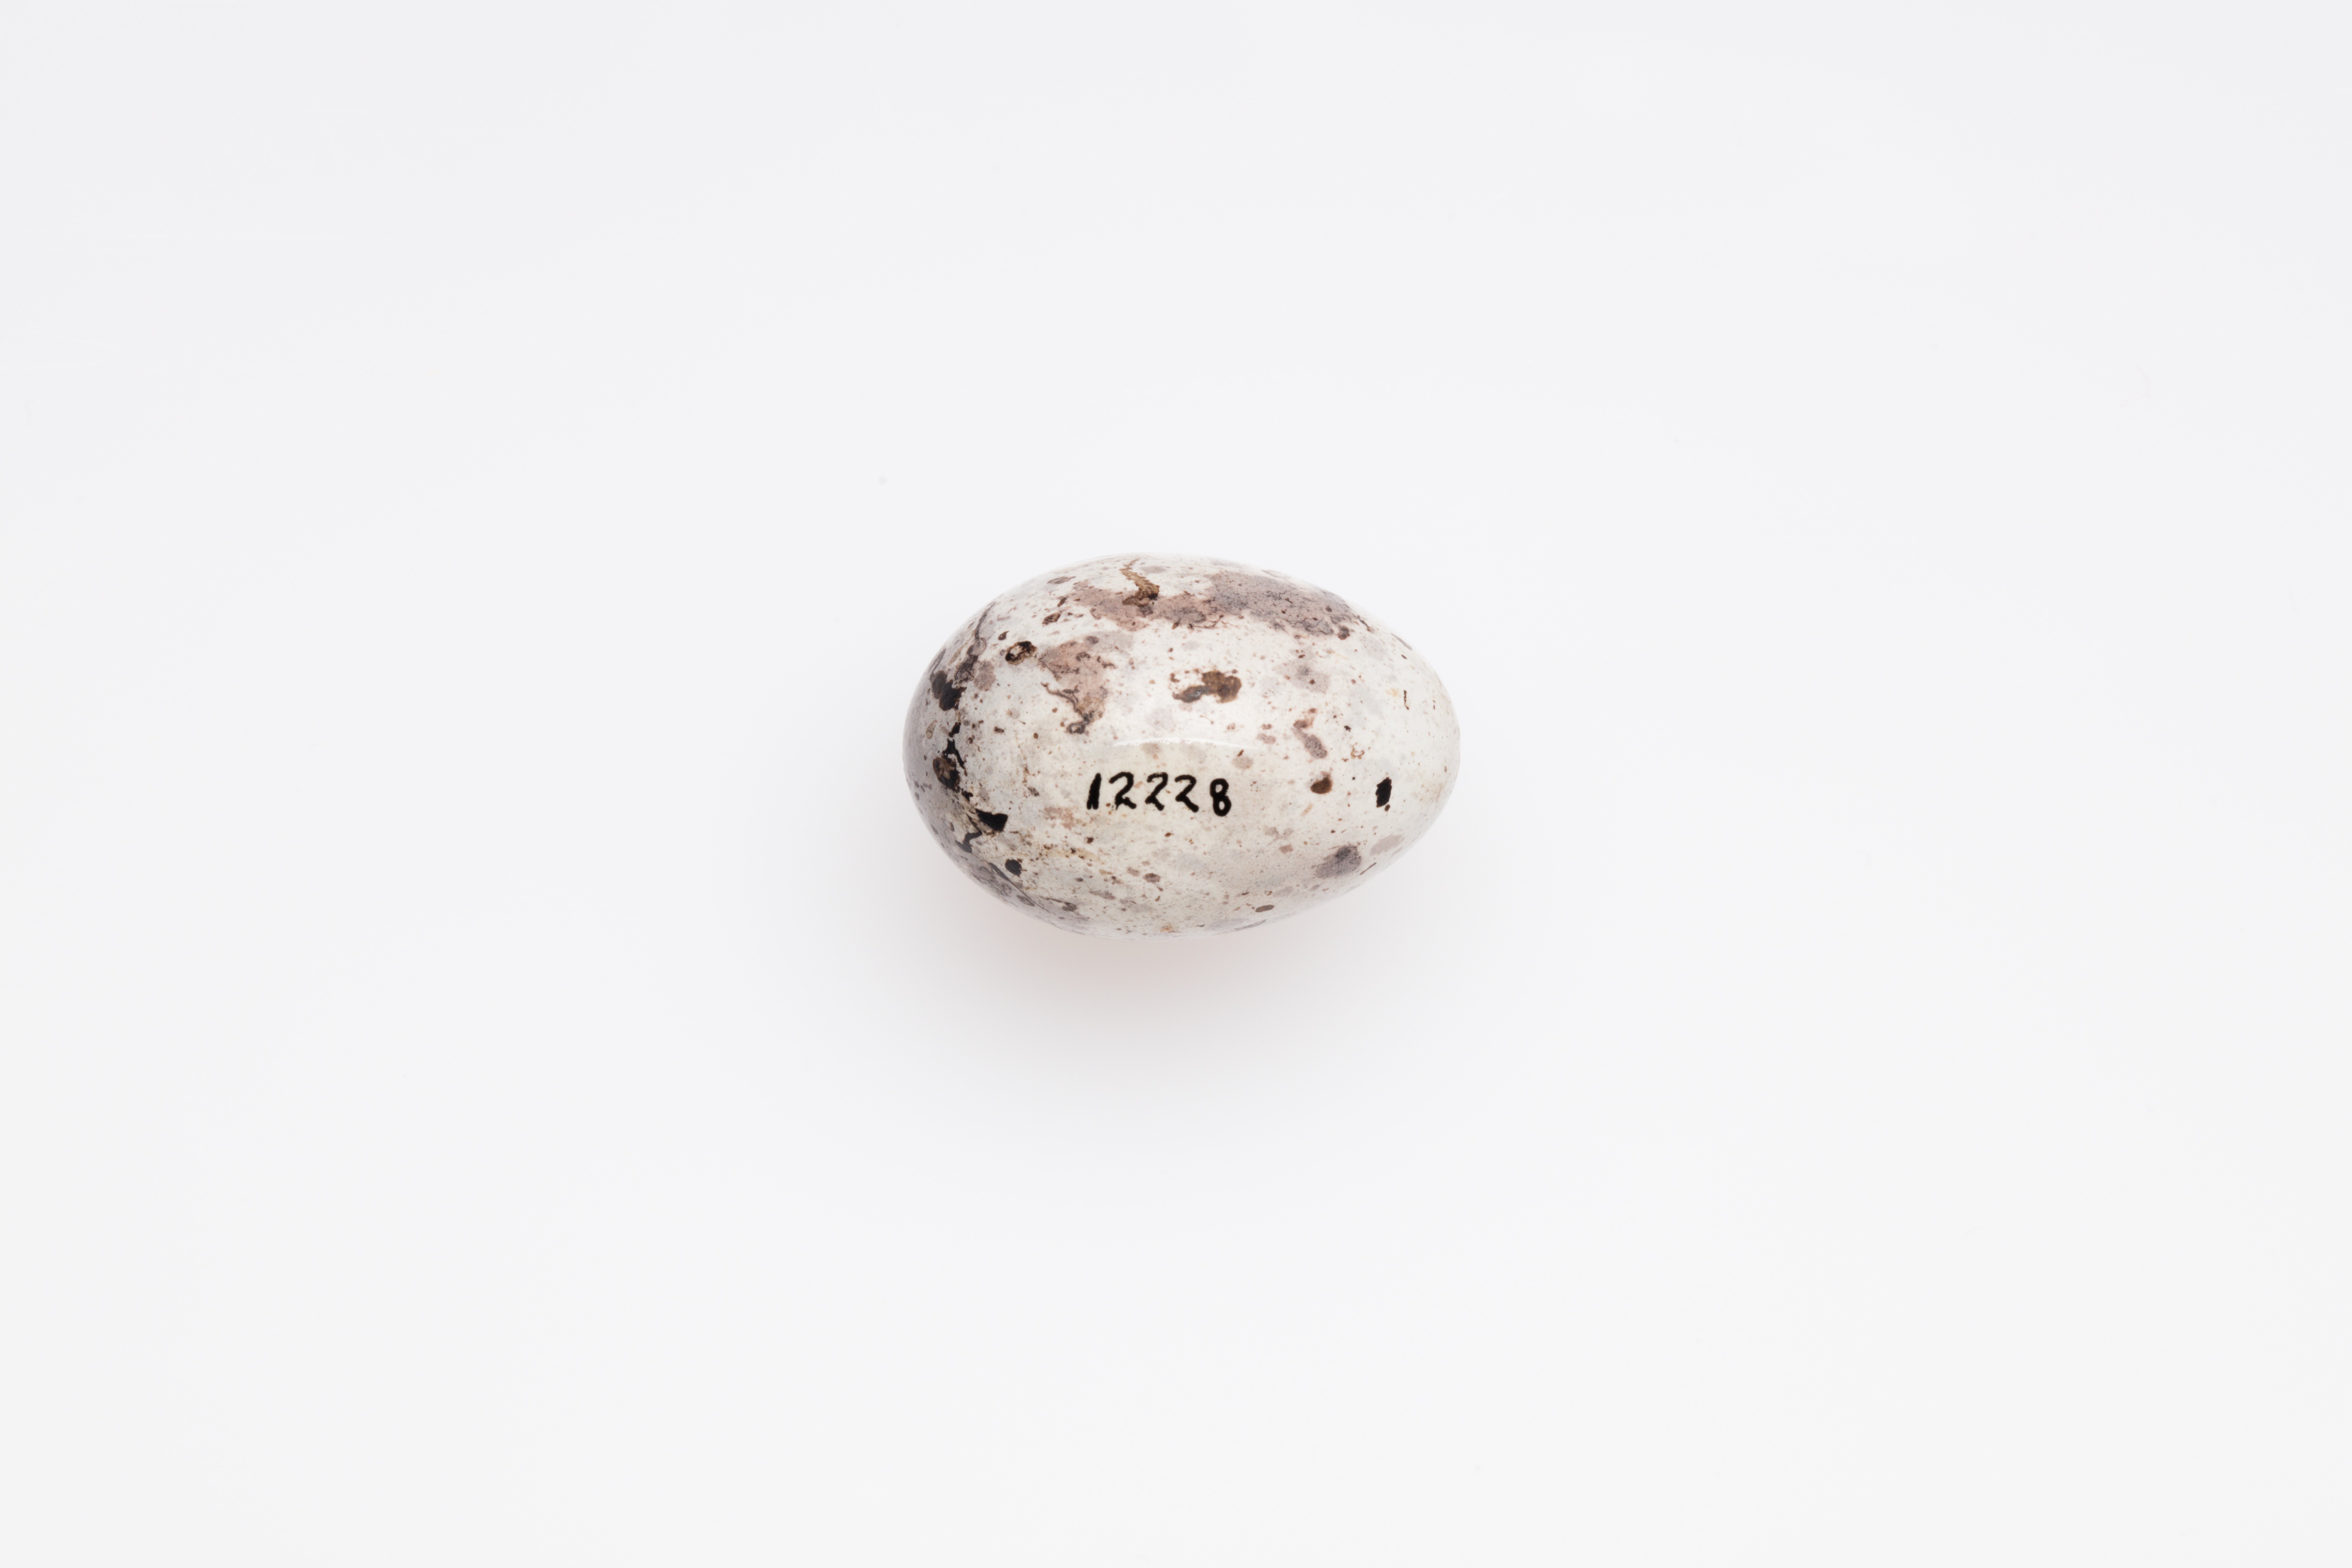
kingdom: Animalia
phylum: Chordata
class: Aves
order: Passeriformes
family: Emberizidae
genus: Emberiza
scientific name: Emberiza calandra
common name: Corn bunting
